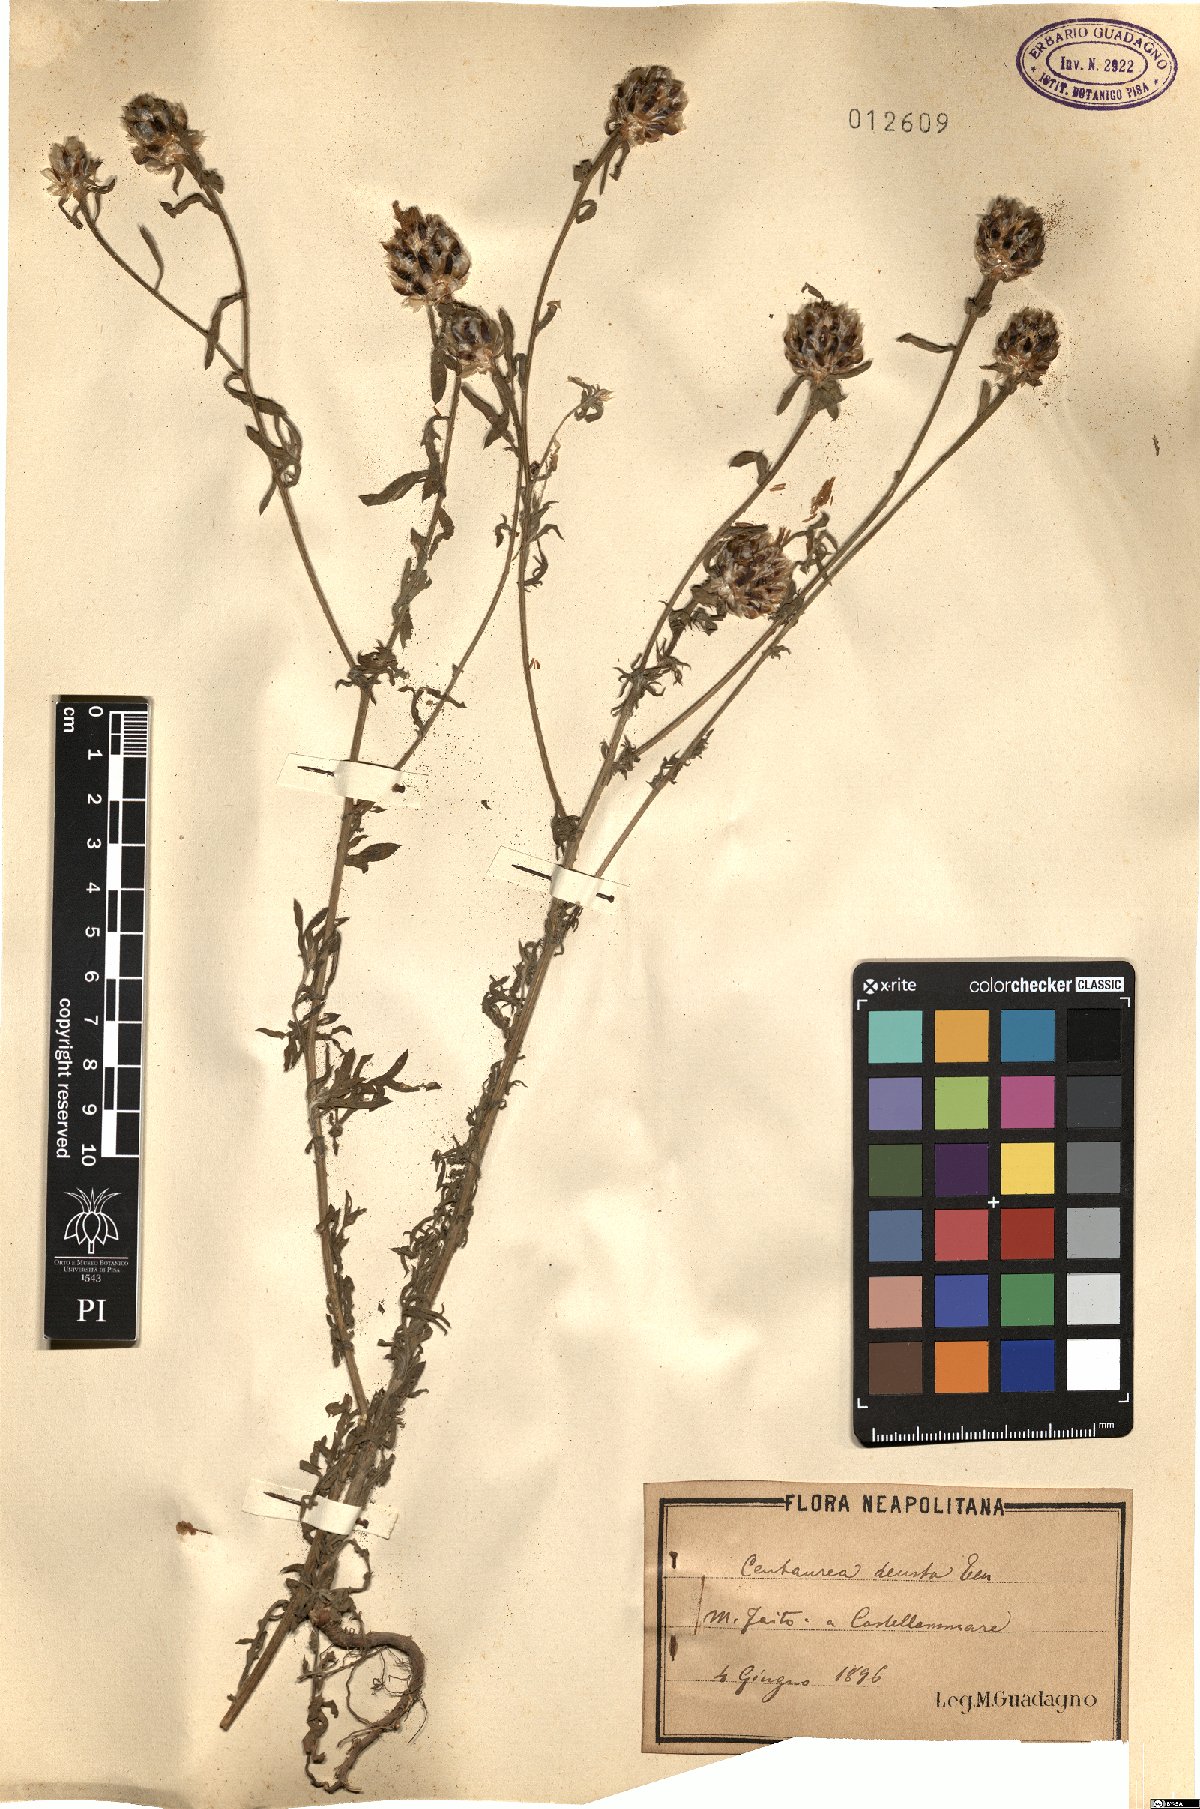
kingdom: Plantae
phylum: Tracheophyta
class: Magnoliopsida
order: Asterales
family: Asteraceae
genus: Centaurea
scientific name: Centaurea deusta
